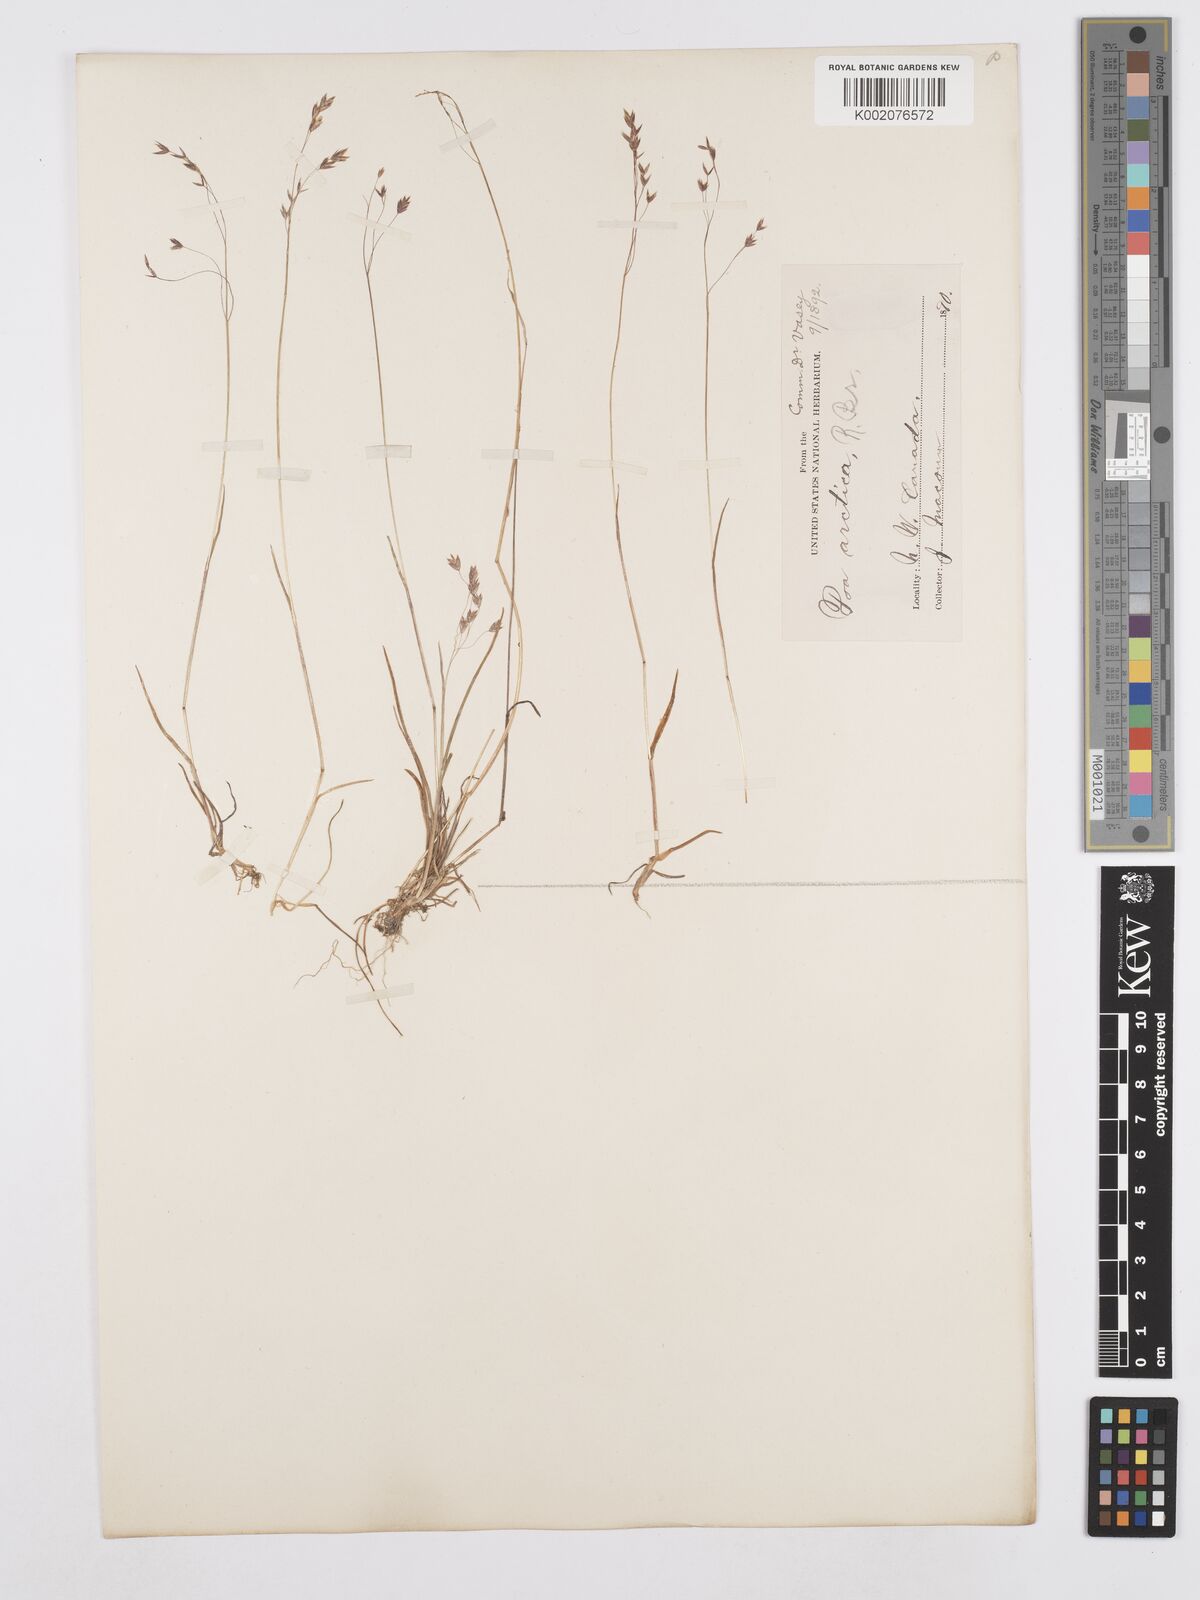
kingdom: Plantae
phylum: Tracheophyta
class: Liliopsida
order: Poales
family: Poaceae
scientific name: Poaceae
